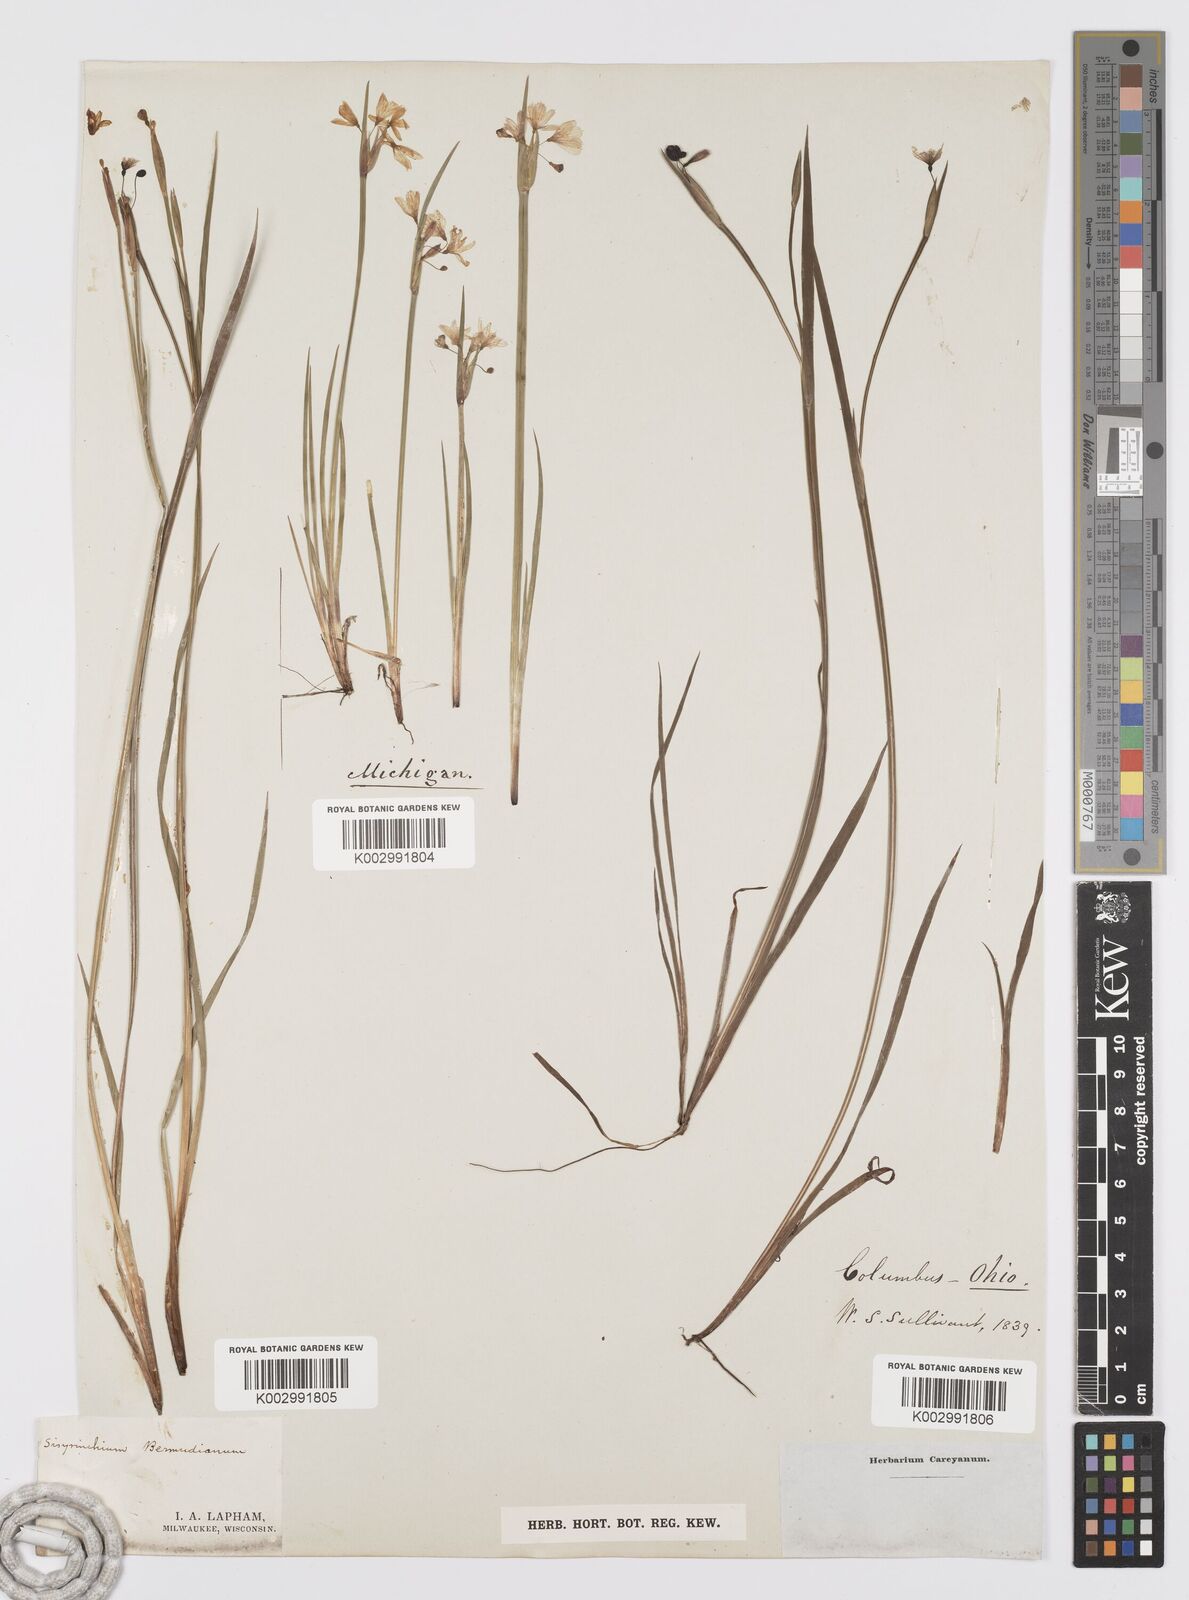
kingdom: Plantae
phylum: Tracheophyta
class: Liliopsida
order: Asparagales
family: Iridaceae
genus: Sisyrinchium
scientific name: Sisyrinchium bermudiana
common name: Blue-eyed-grass
